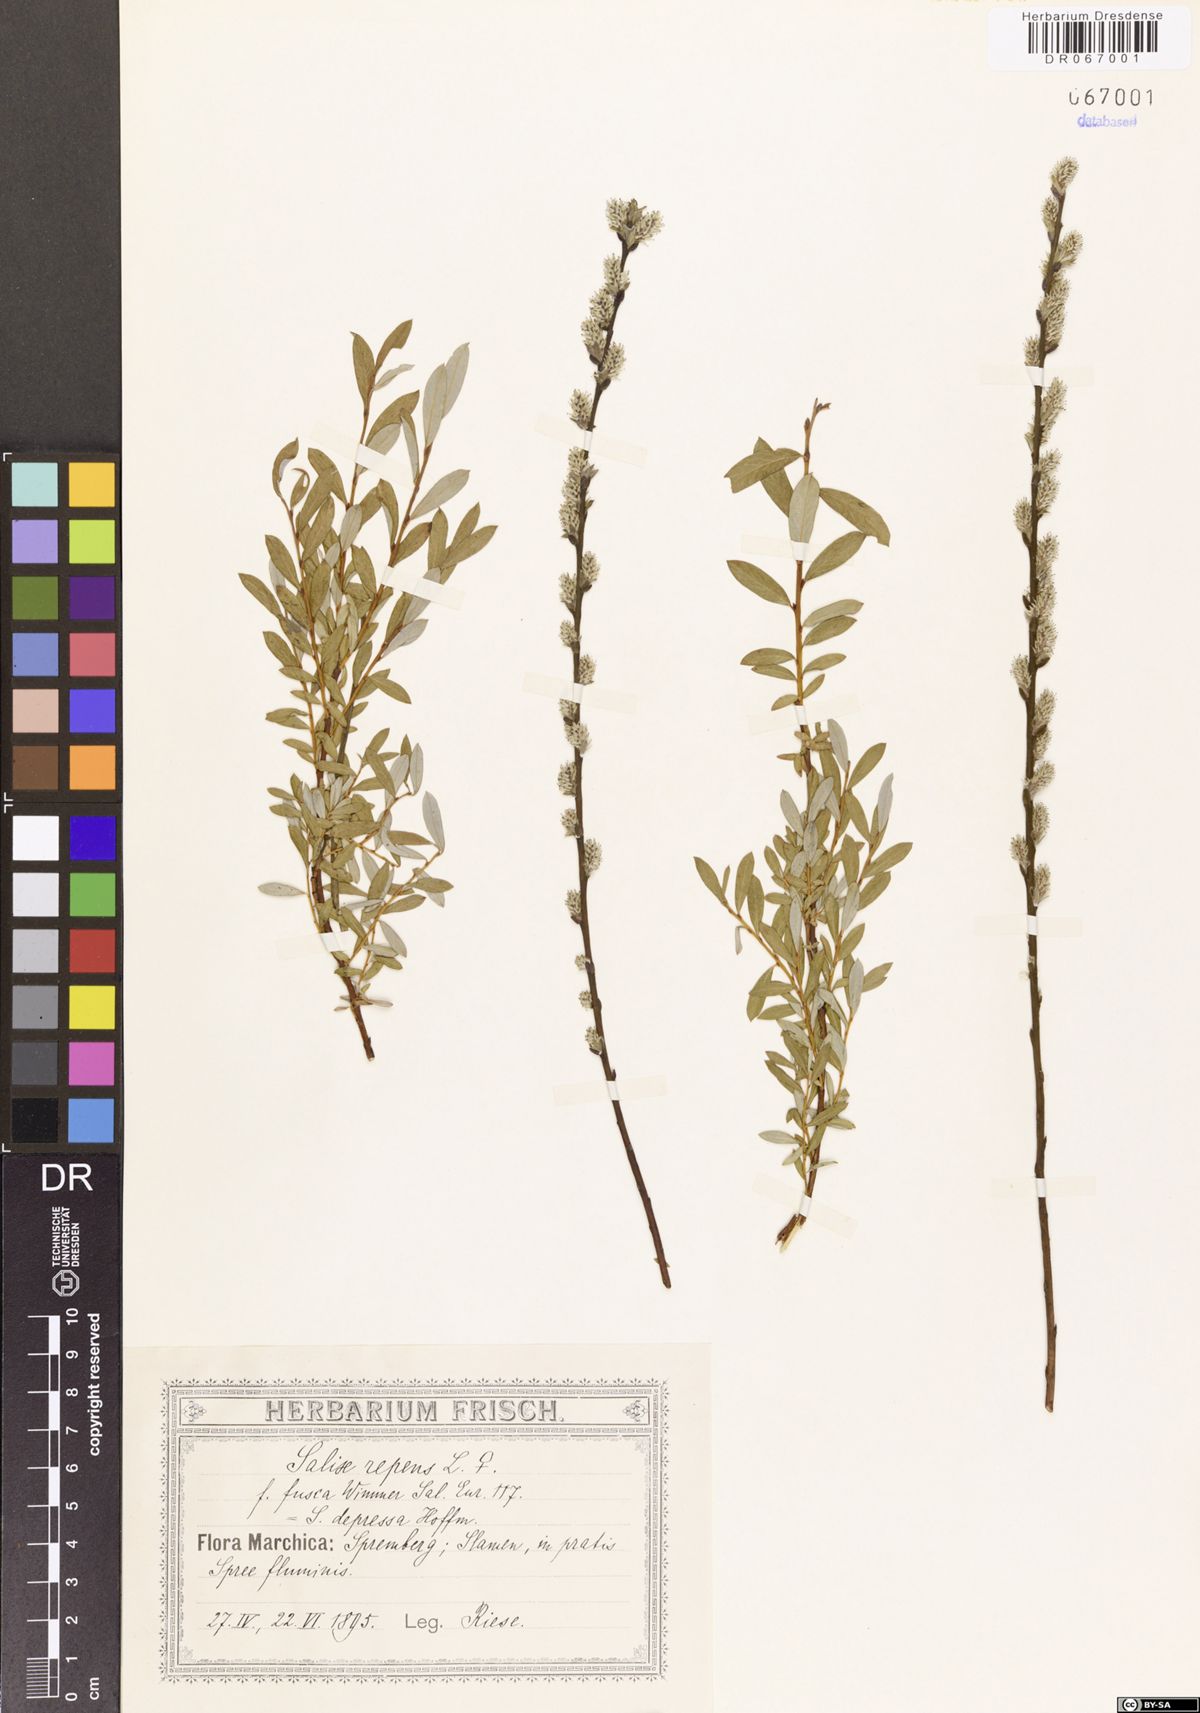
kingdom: Plantae
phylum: Tracheophyta
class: Magnoliopsida
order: Malpighiales
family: Salicaceae
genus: Salix
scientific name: Salix repens
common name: Creeping willow
